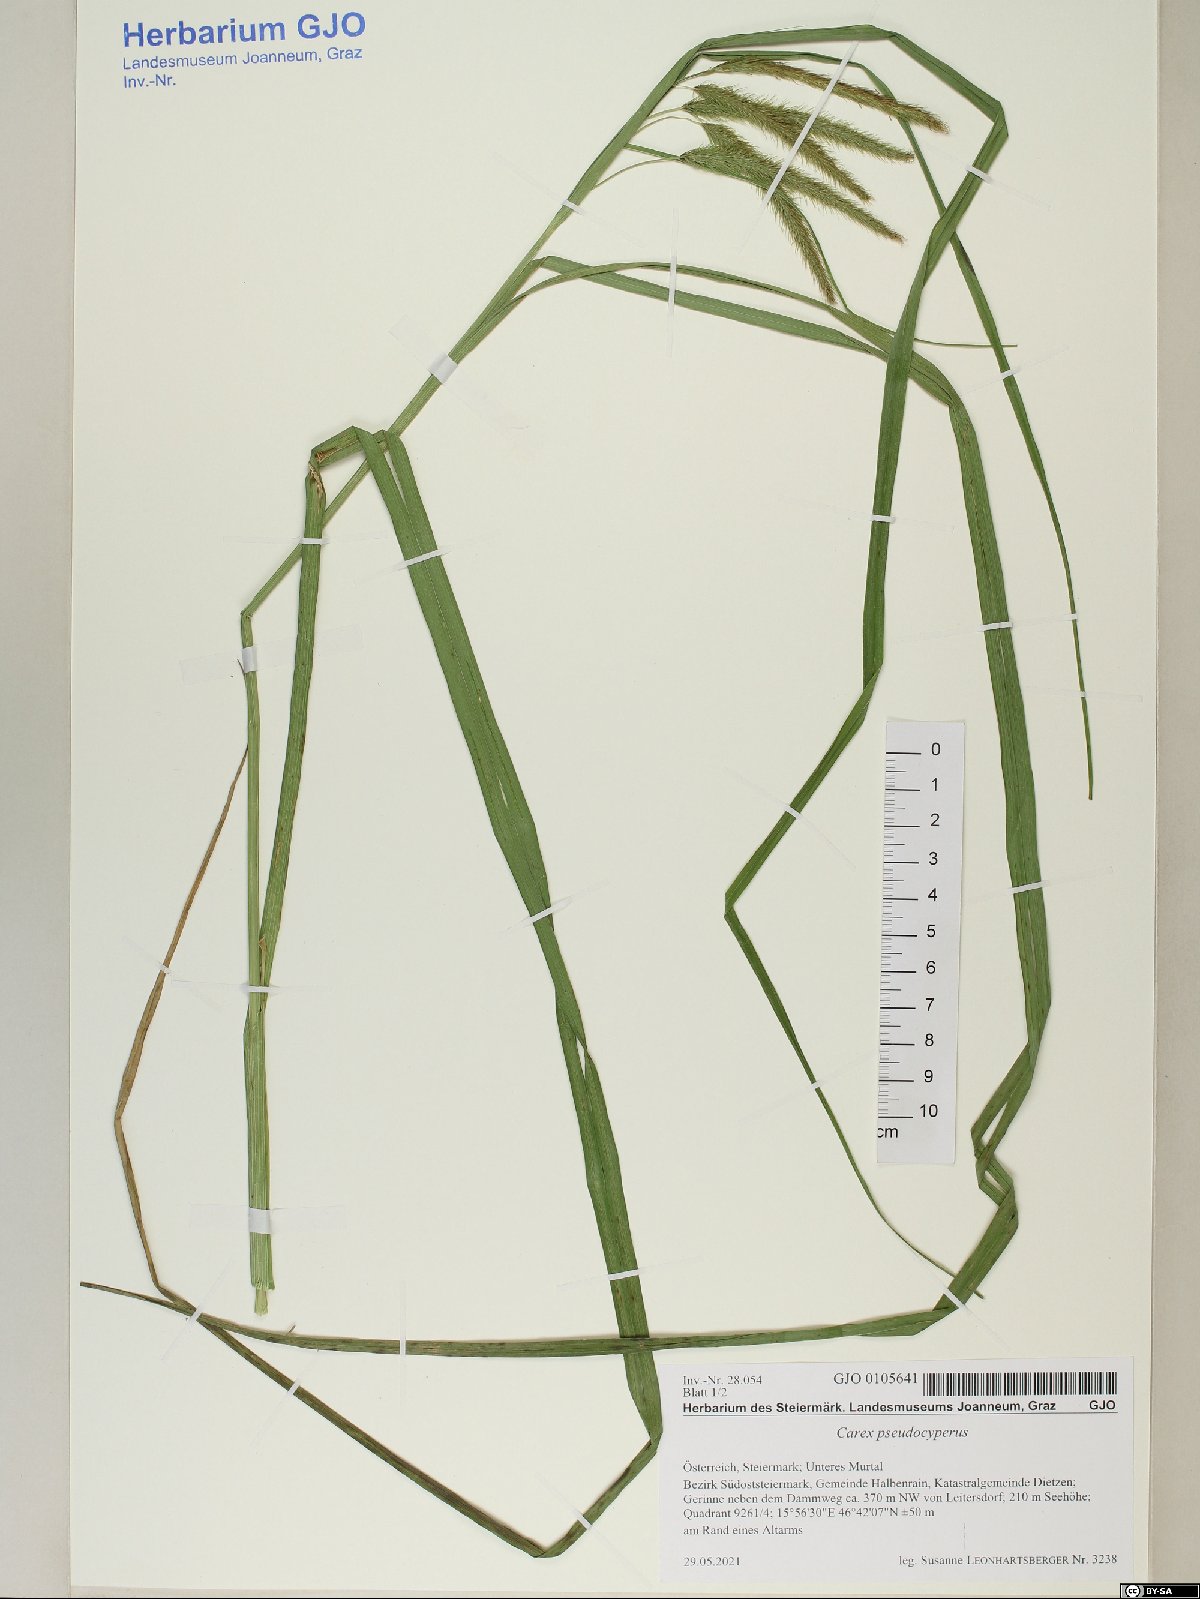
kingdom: Plantae
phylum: Tracheophyta
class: Liliopsida
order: Poales
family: Cyperaceae
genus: Carex
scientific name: Carex pseudocyperus
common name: Cyperus sedge
